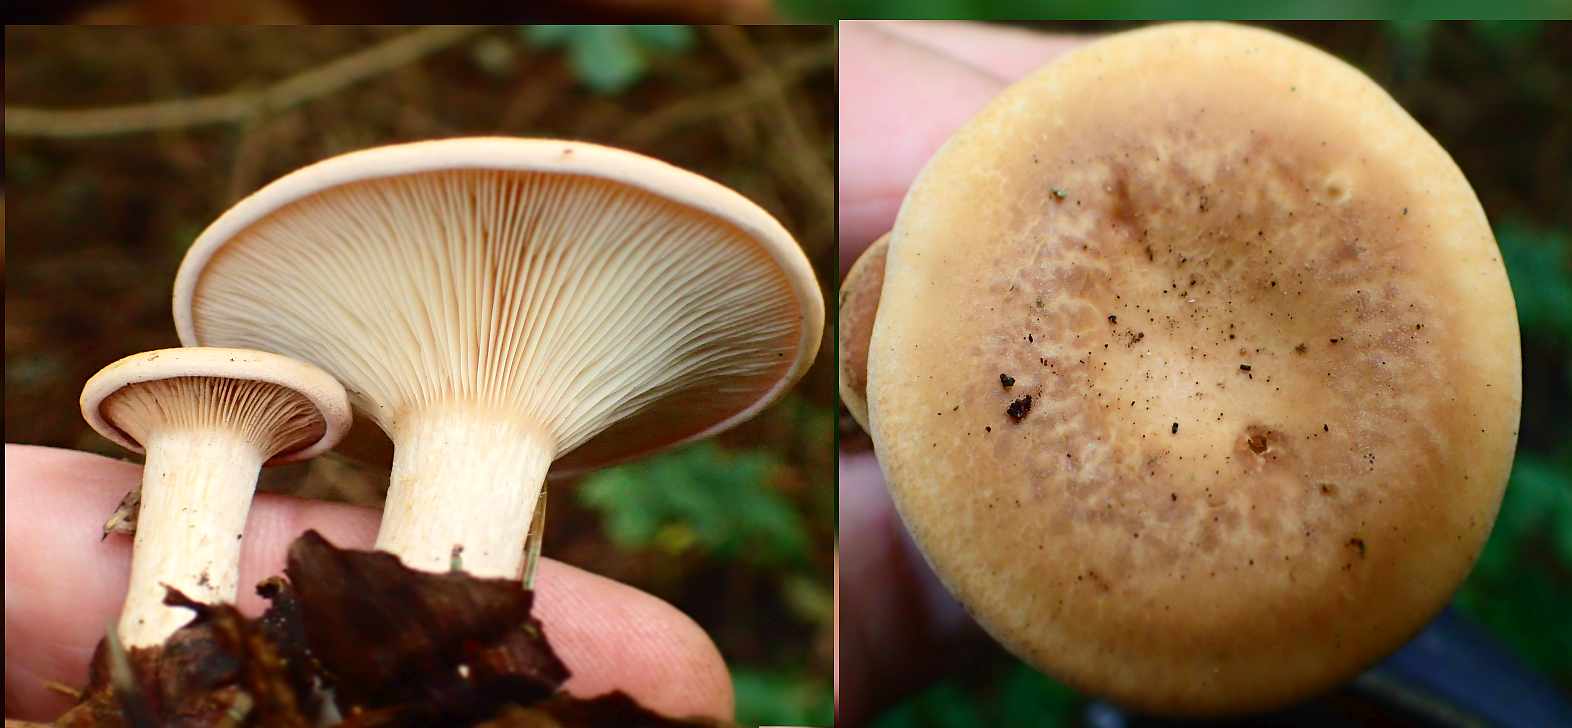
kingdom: Fungi
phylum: Basidiomycota
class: Agaricomycetes
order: Agaricales
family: Tricholomataceae
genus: Paralepista
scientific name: Paralepista flaccida
